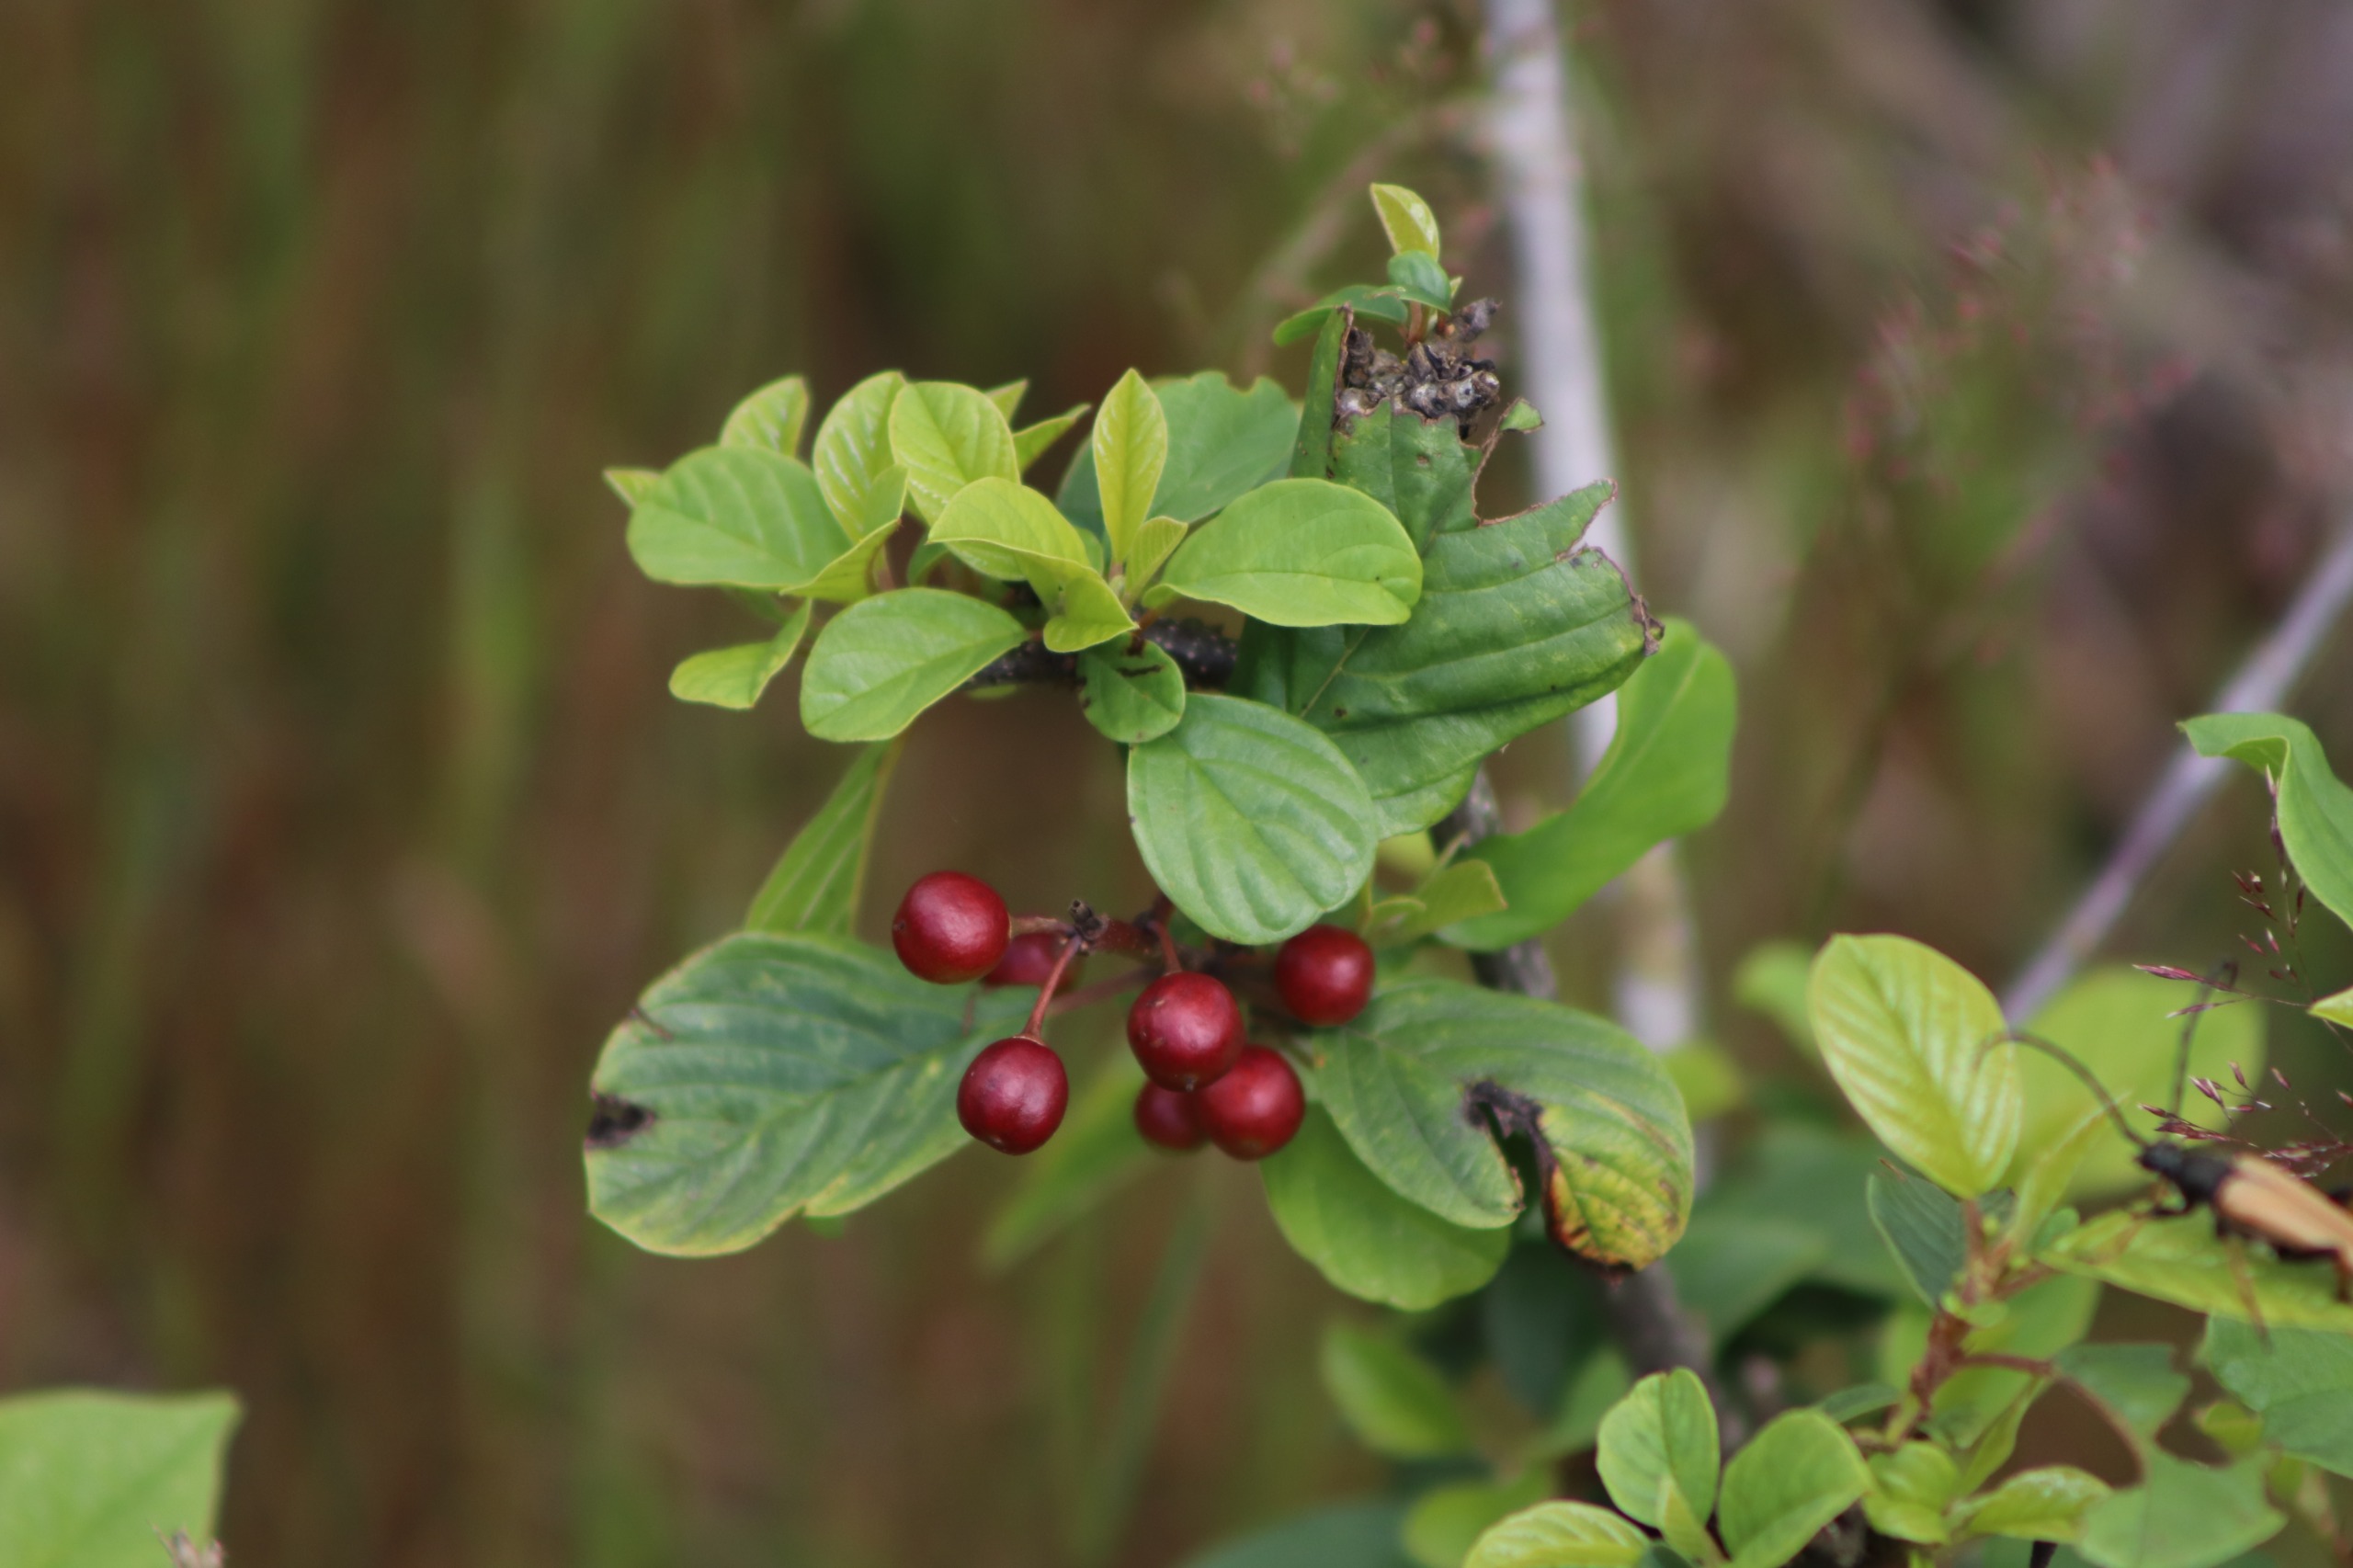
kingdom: Plantae
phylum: Tracheophyta
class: Magnoliopsida
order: Rosales
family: Rhamnaceae
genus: Frangula
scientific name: Frangula alnus
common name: Tørst
